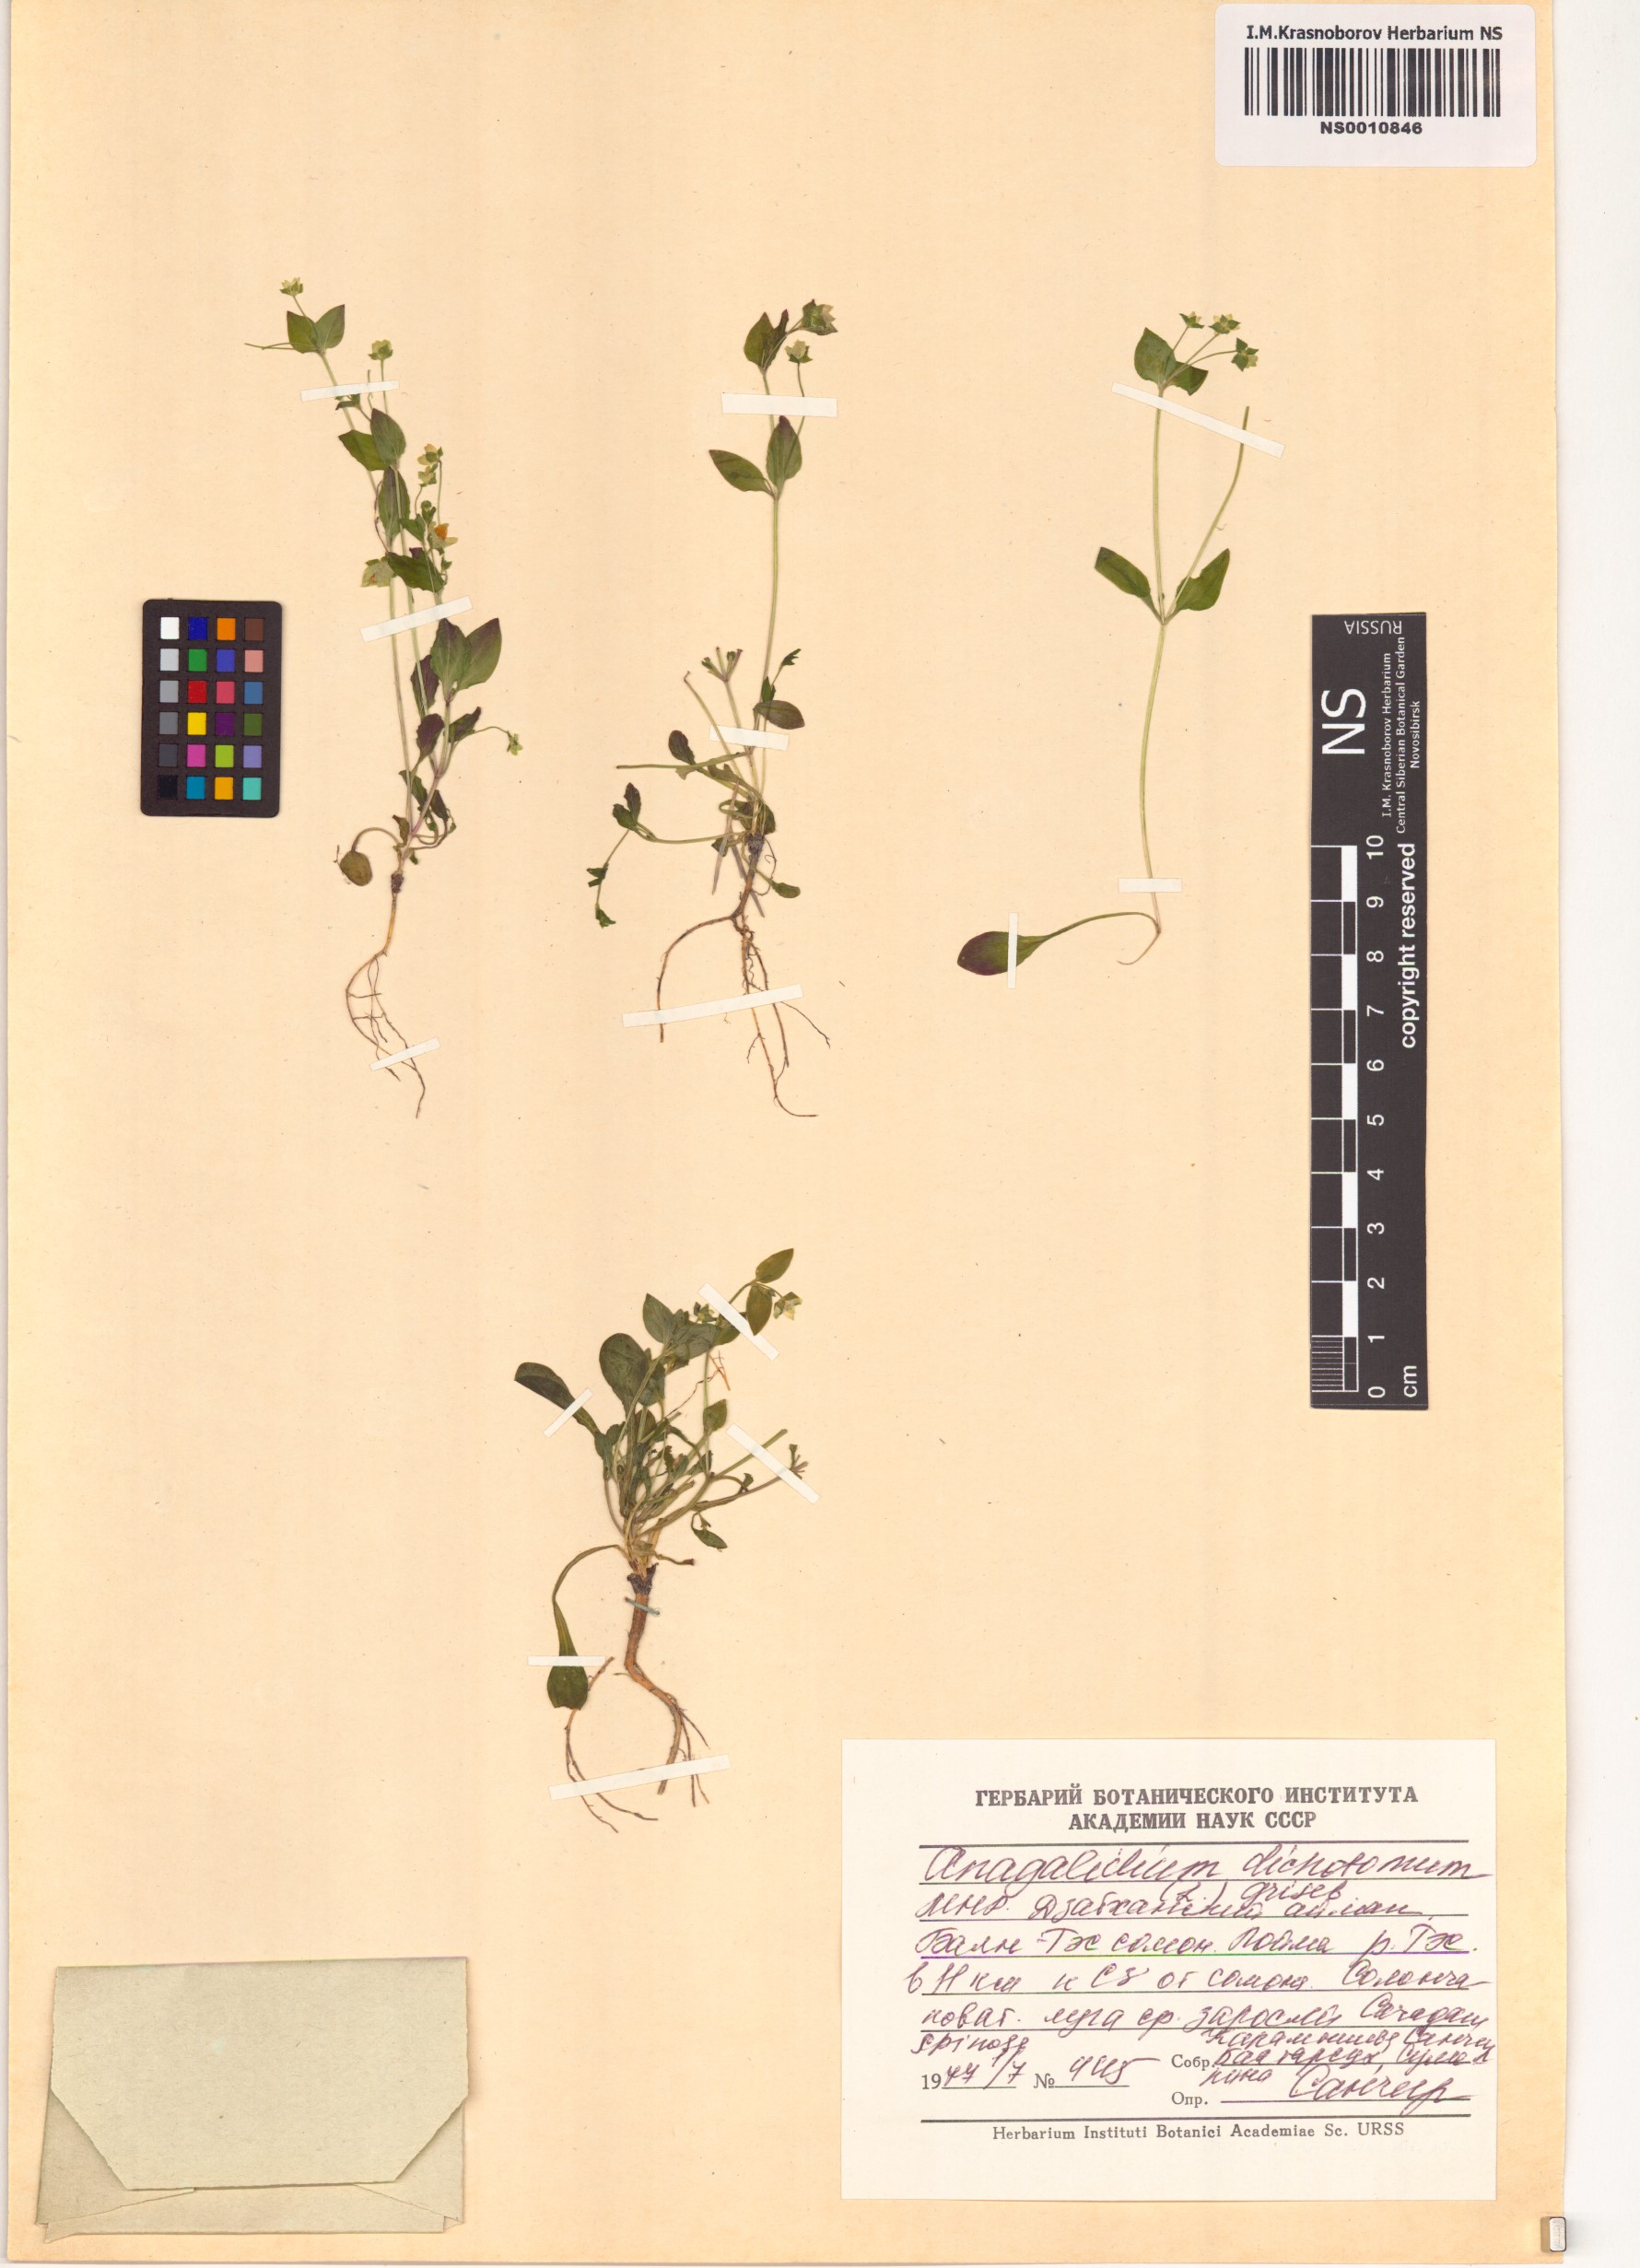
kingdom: Plantae
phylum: Tracheophyta
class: Magnoliopsida
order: Gentianales
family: Gentianaceae
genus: Swertia
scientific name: Swertia dichotoma
